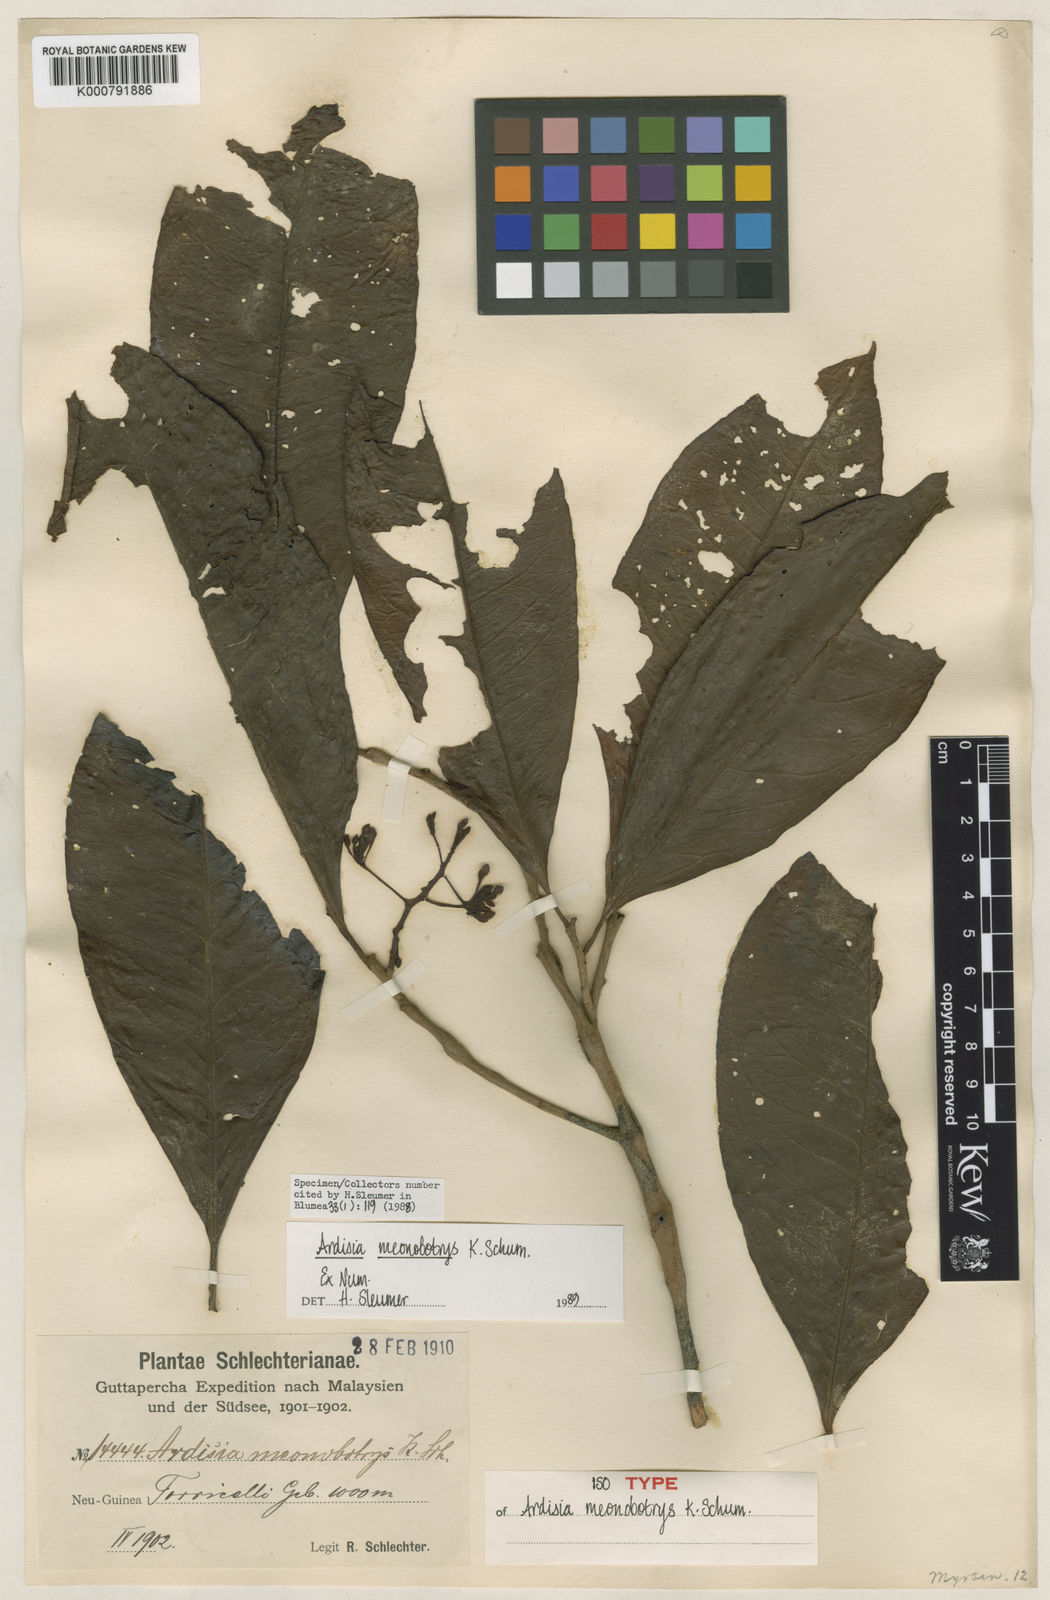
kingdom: Plantae
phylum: Tracheophyta
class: Magnoliopsida
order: Ericales
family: Primulaceae
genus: Ardisia
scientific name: Ardisia
